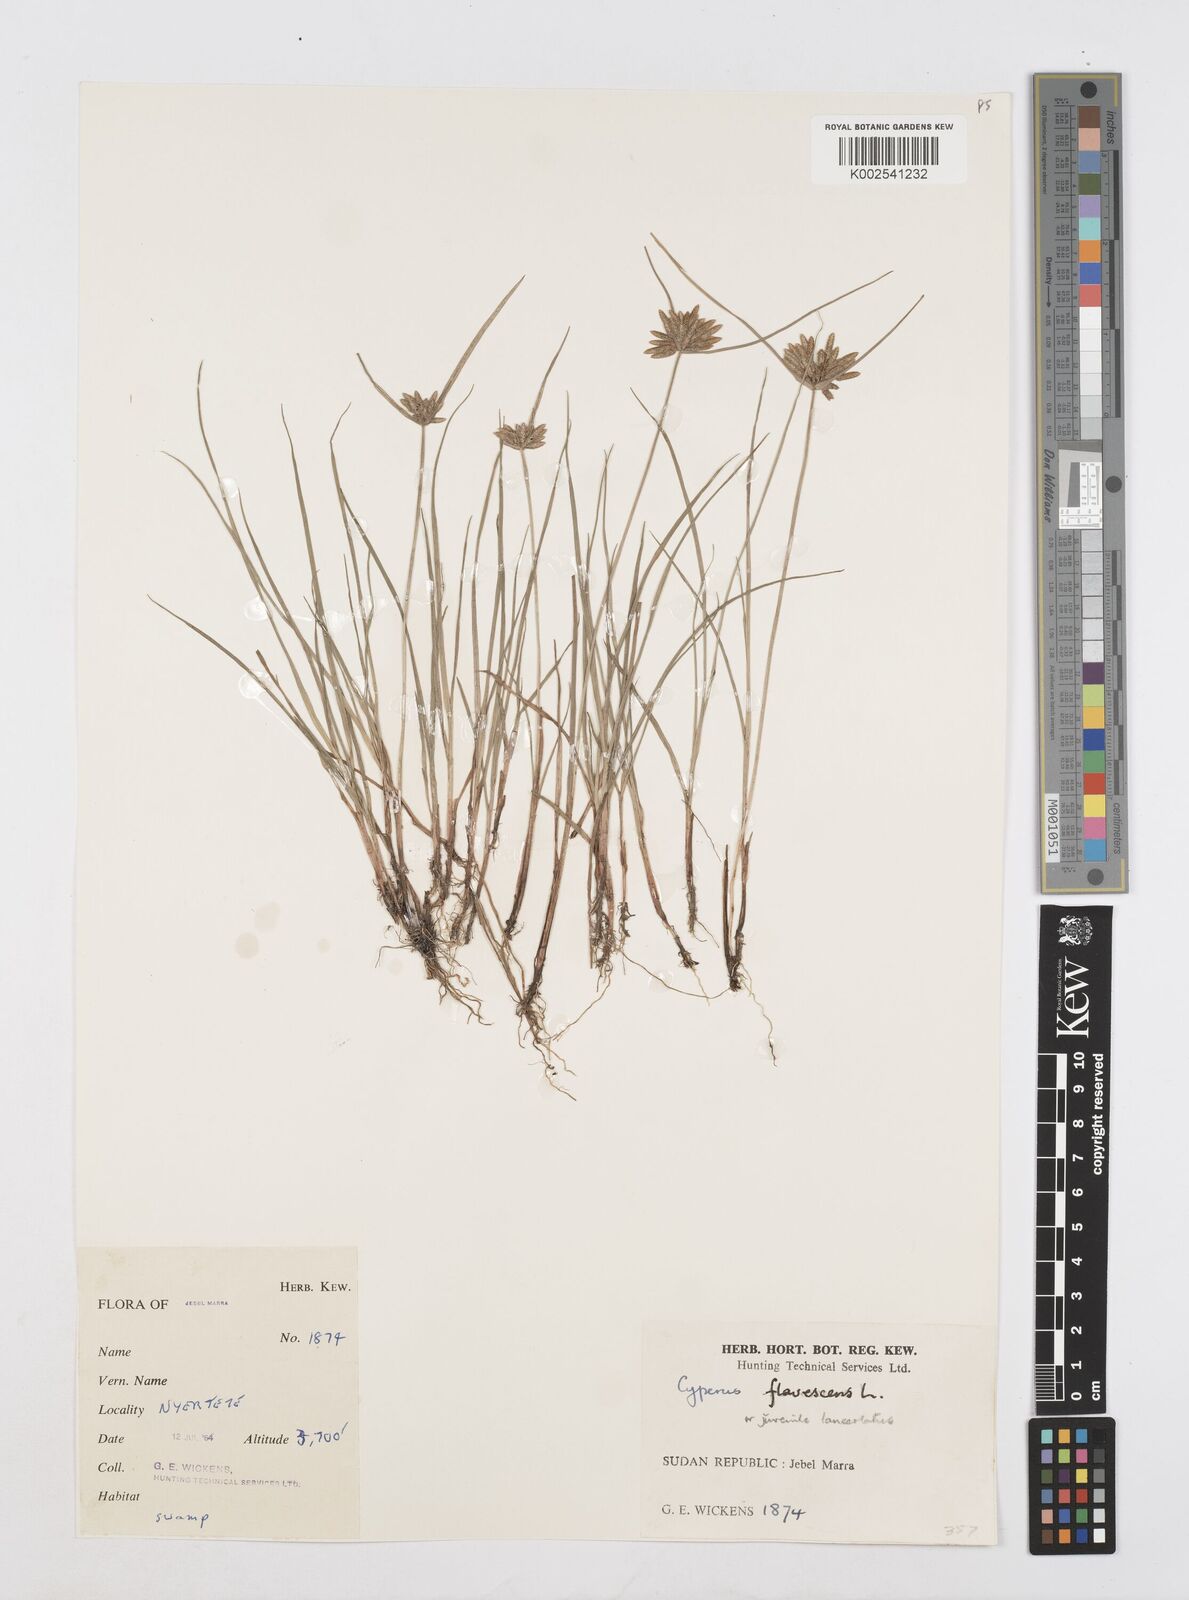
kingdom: Plantae
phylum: Tracheophyta
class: Liliopsida
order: Poales
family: Cyperaceae
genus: Cyperus
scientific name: Cyperus flavescens
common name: Yellow galingale
